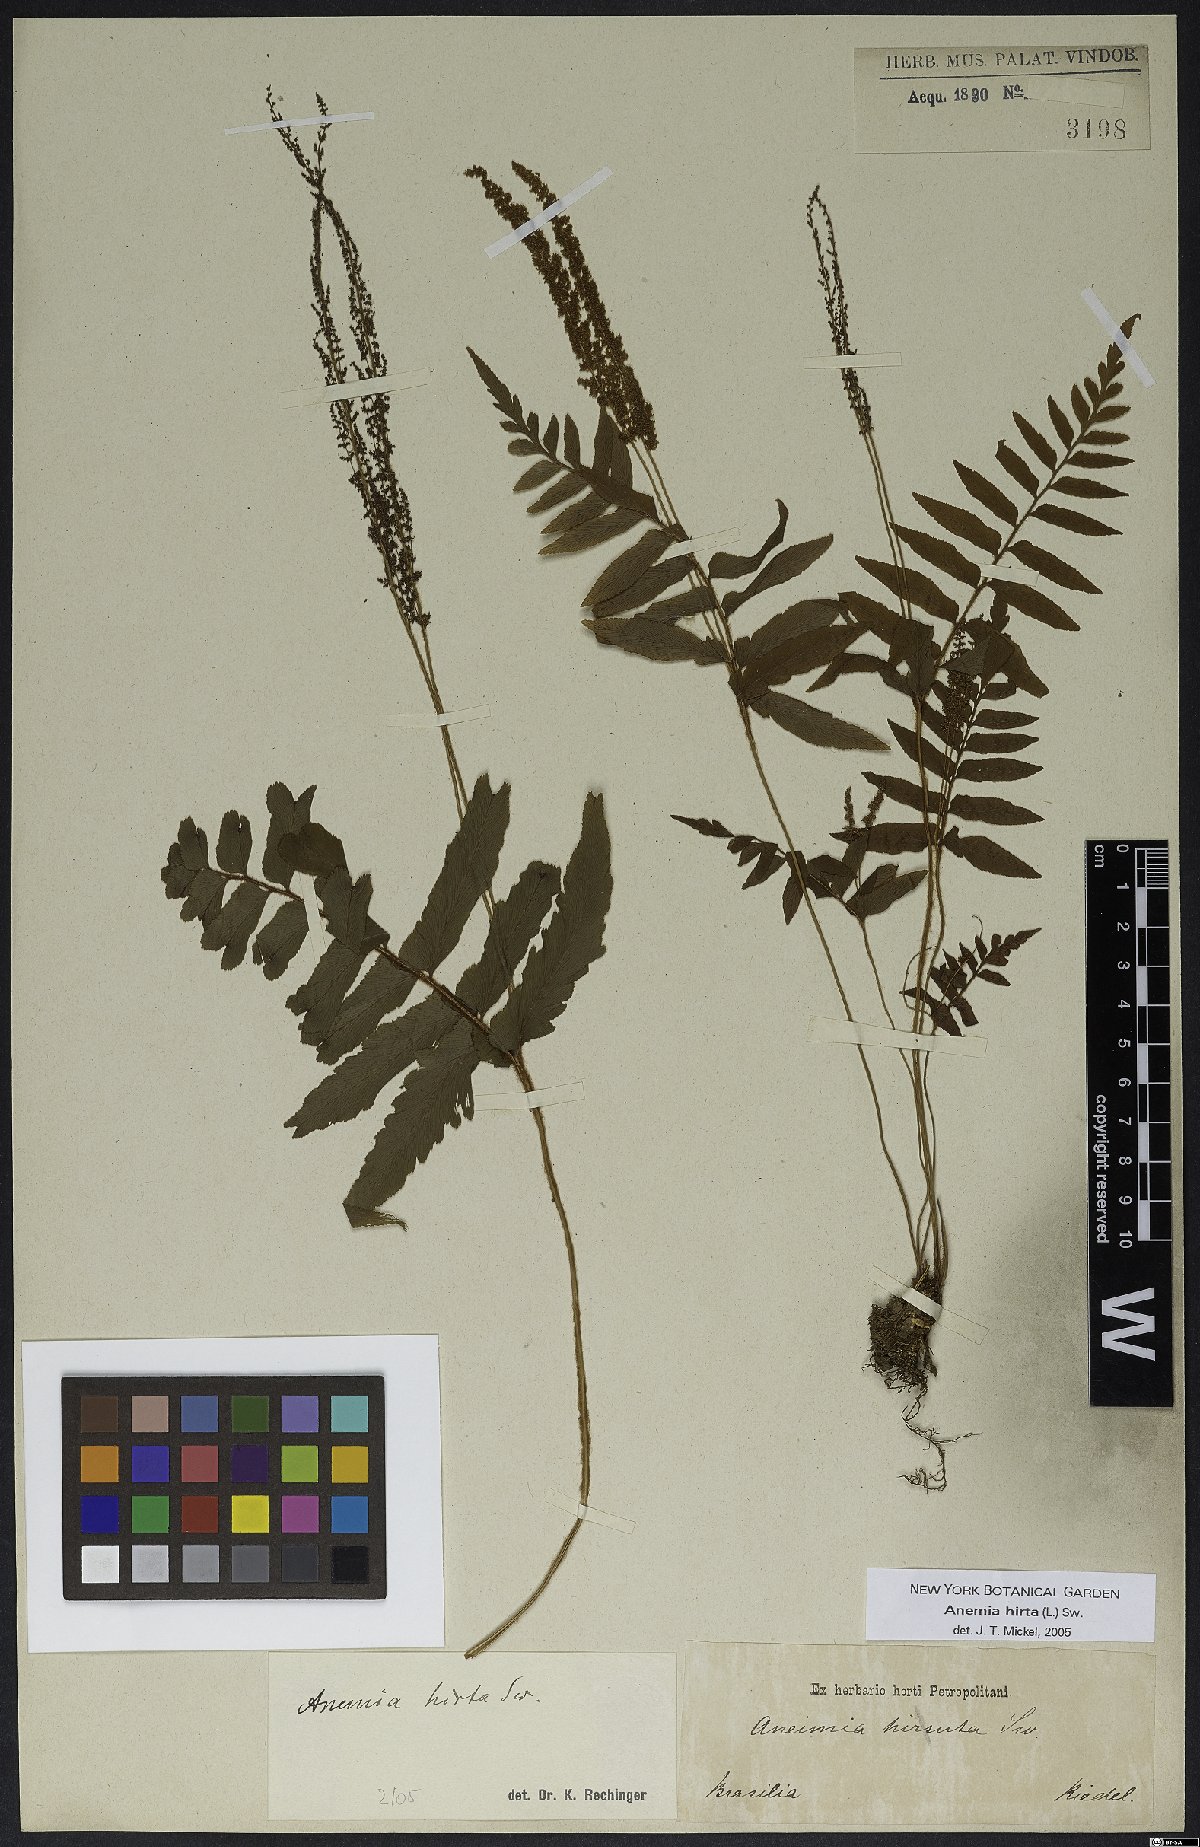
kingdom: Plantae
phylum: Tracheophyta
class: Polypodiopsida
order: Schizaeales
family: Anemiaceae
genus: Anemia
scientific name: Anemia hirsuta
